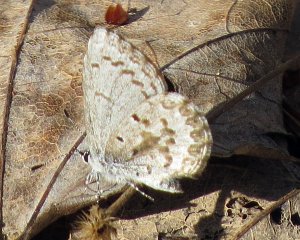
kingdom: Animalia
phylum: Arthropoda
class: Insecta
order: Lepidoptera
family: Lycaenidae
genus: Celastrina
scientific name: Celastrina ladon
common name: Spring Azure
